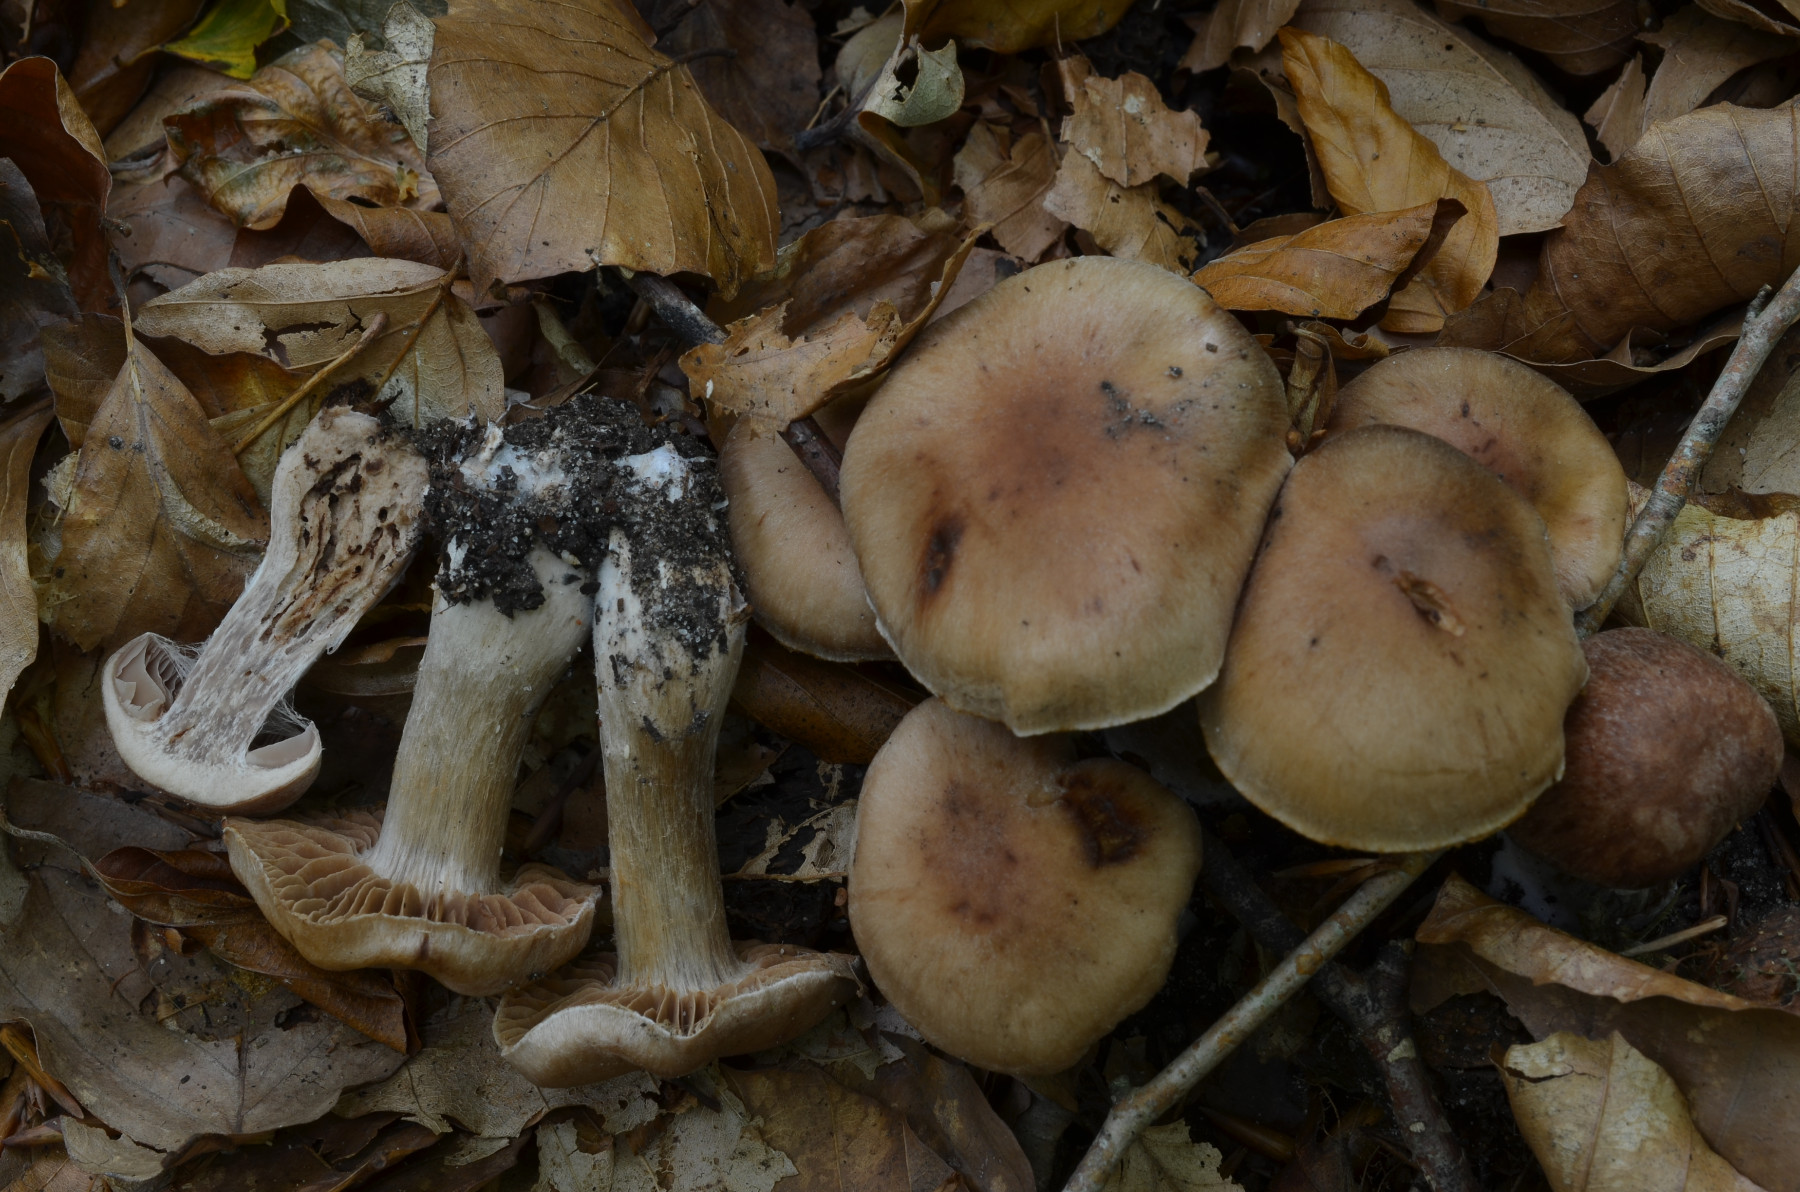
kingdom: Fungi
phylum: Basidiomycota
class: Agaricomycetes
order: Agaricales
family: Cortinariaceae
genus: Cortinarius
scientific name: Cortinarius ainsworthii
